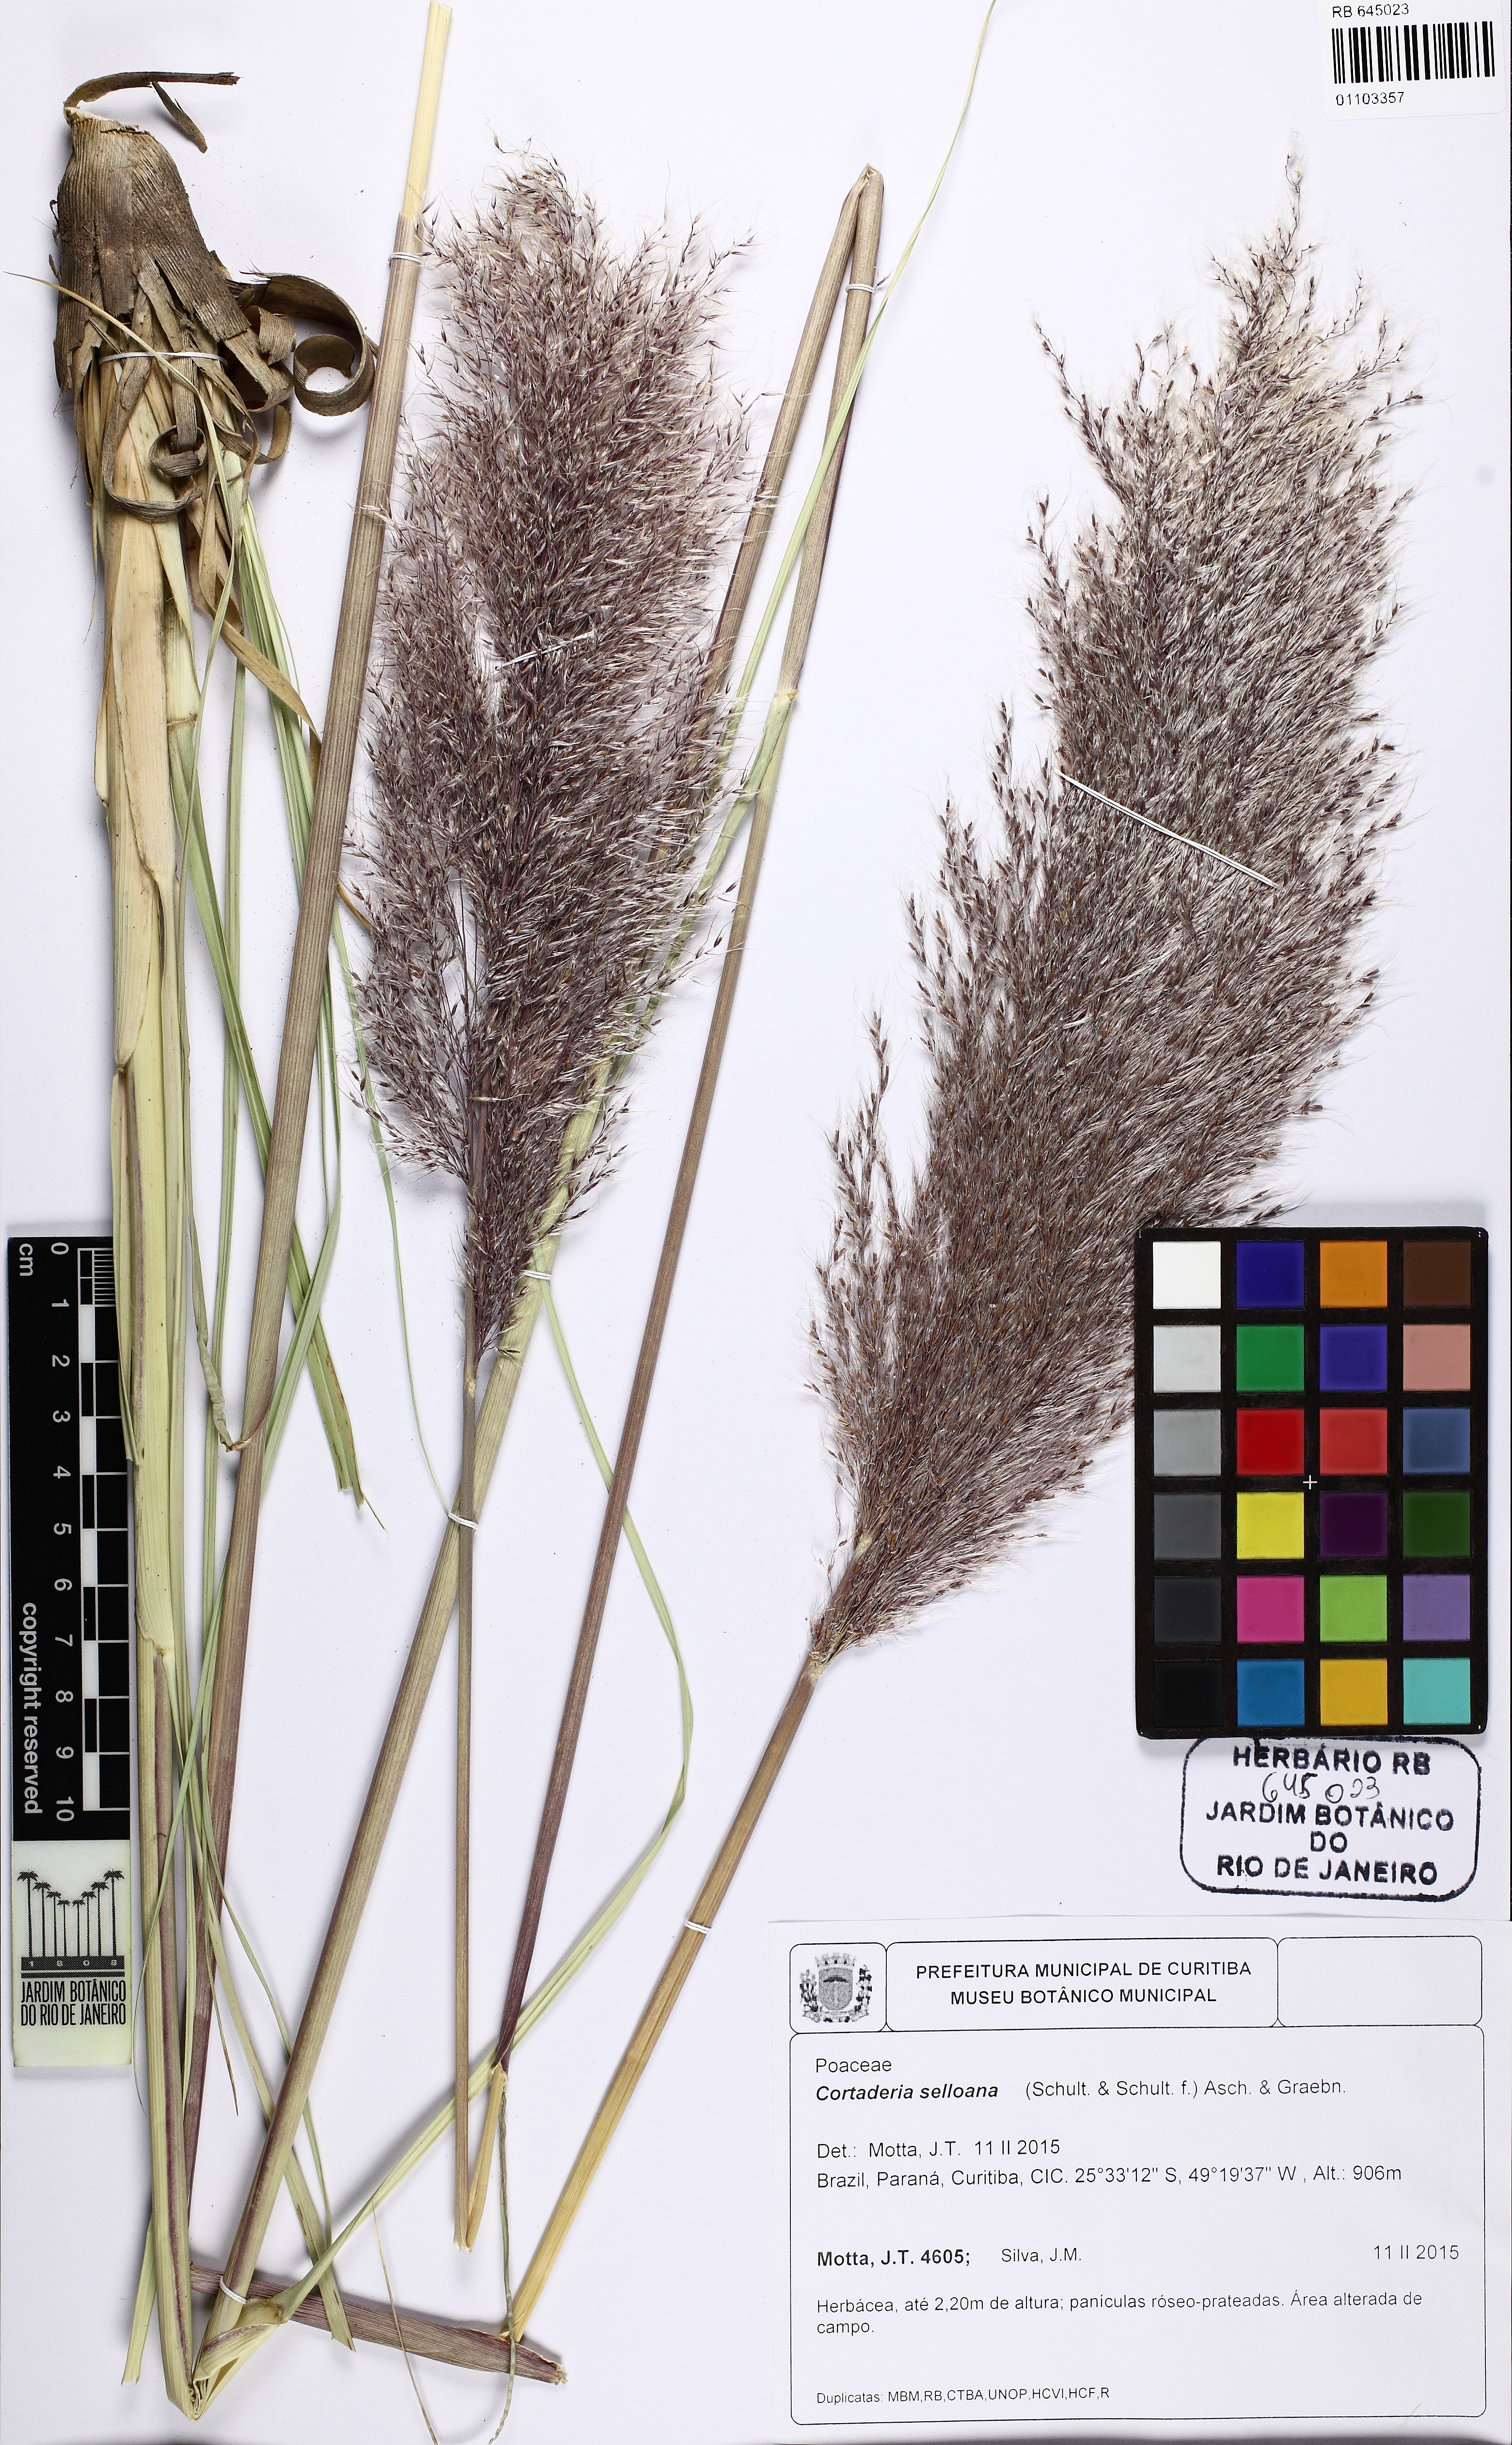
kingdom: Plantae
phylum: Tracheophyta
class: Liliopsida
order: Poales
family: Poaceae
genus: Cortaderia
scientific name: Cortaderia selloana
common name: Uruguayan pampas grass
